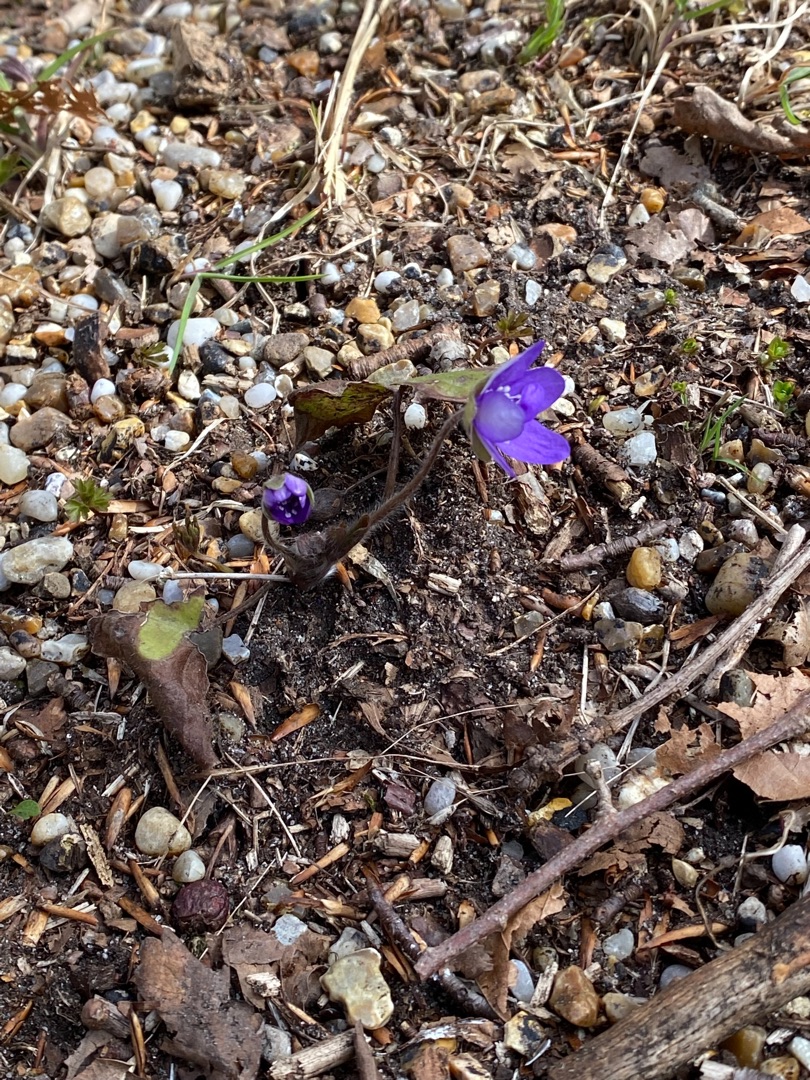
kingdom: Plantae
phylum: Tracheophyta
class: Magnoliopsida
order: Ranunculales
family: Ranunculaceae
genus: Hepatica
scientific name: Hepatica nobilis
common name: Blå anemone
